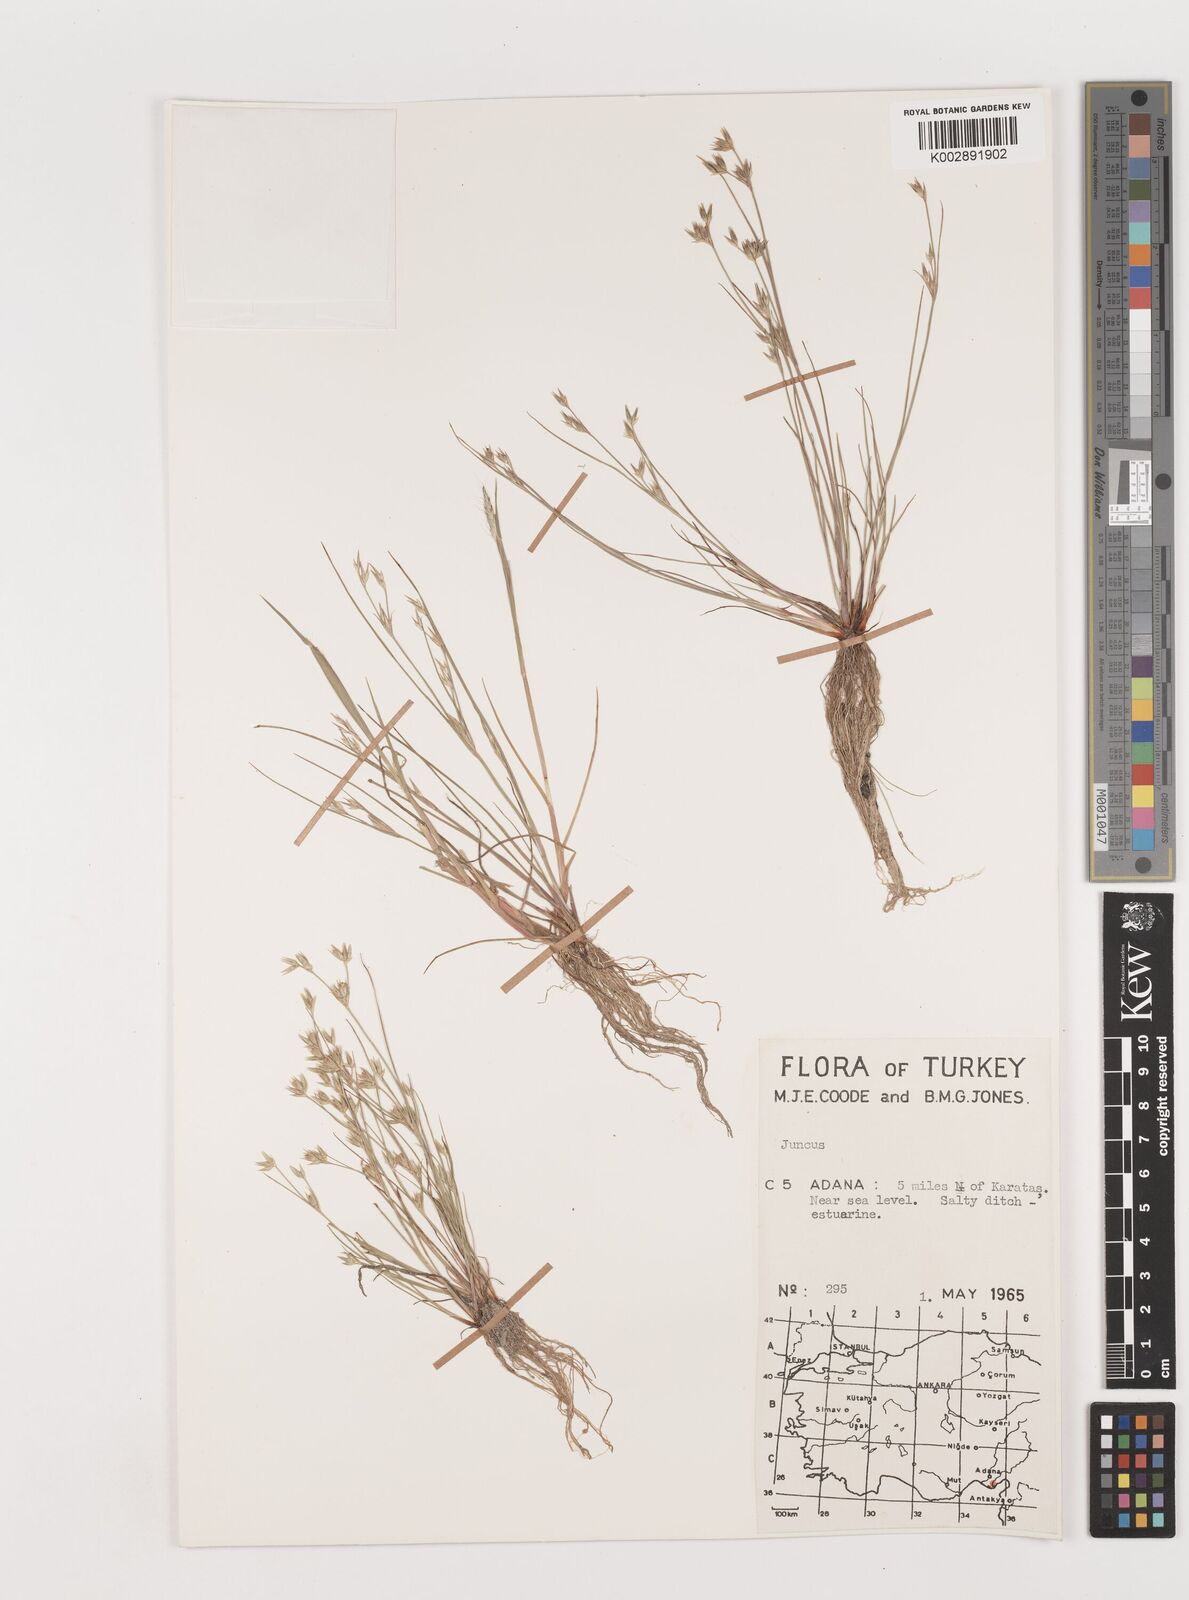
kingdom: Plantae
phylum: Tracheophyta
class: Liliopsida
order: Poales
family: Juncaceae
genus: Juncus
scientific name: Juncus
